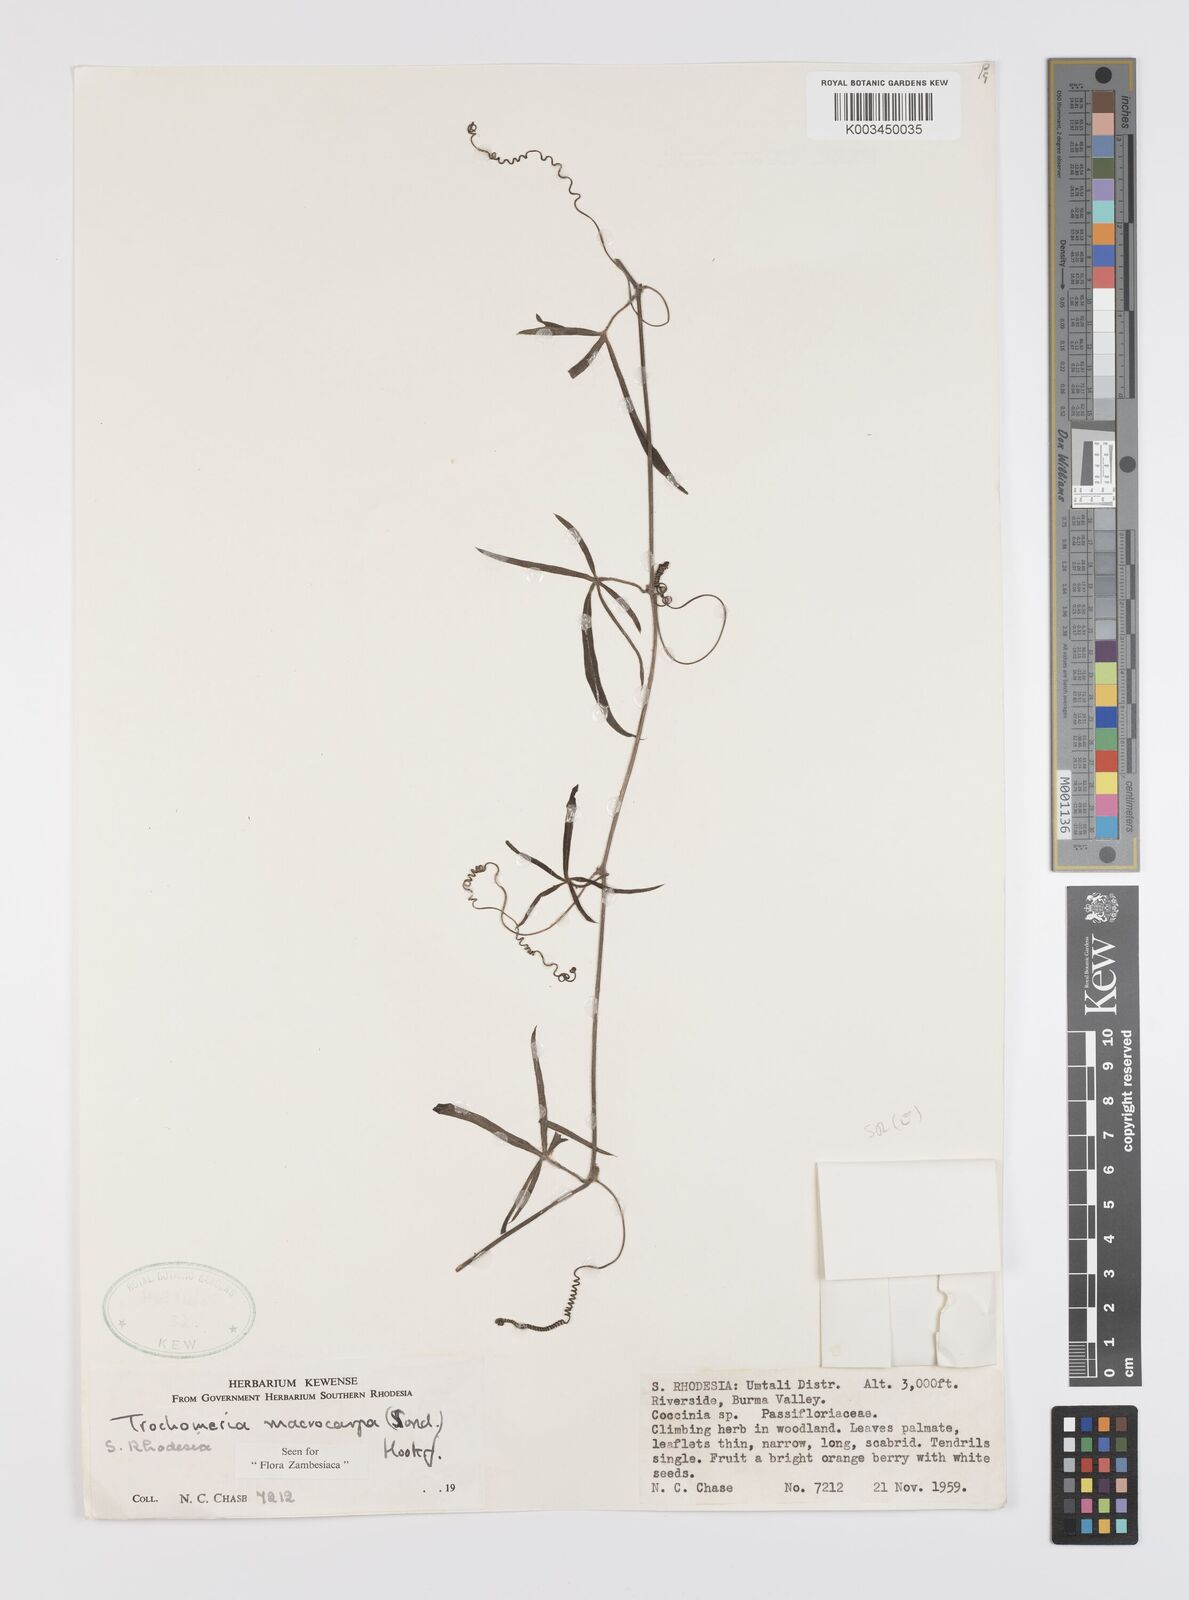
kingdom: Plantae
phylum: Tracheophyta
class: Magnoliopsida
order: Cucurbitales
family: Cucurbitaceae
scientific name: Cucurbitaceae
